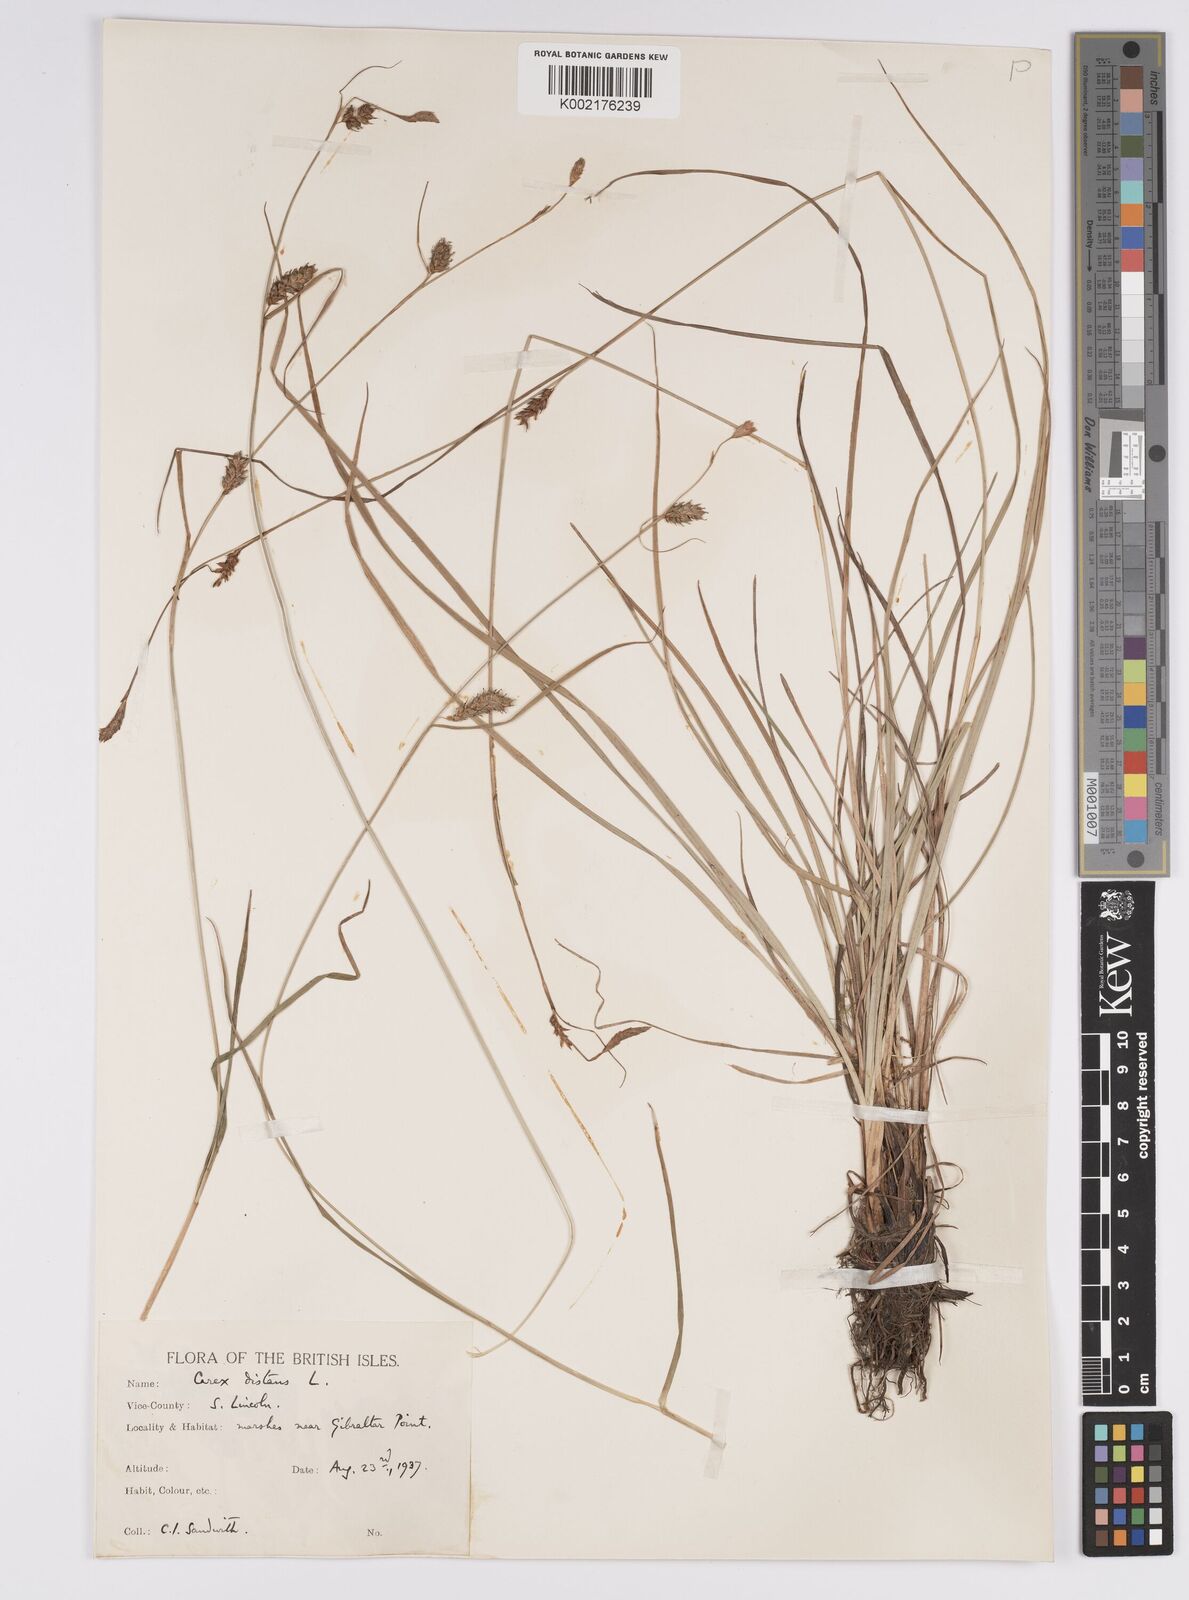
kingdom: Plantae
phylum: Tracheophyta
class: Liliopsida
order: Poales
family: Cyperaceae
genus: Carex
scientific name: Carex distans
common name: Distant sedge
